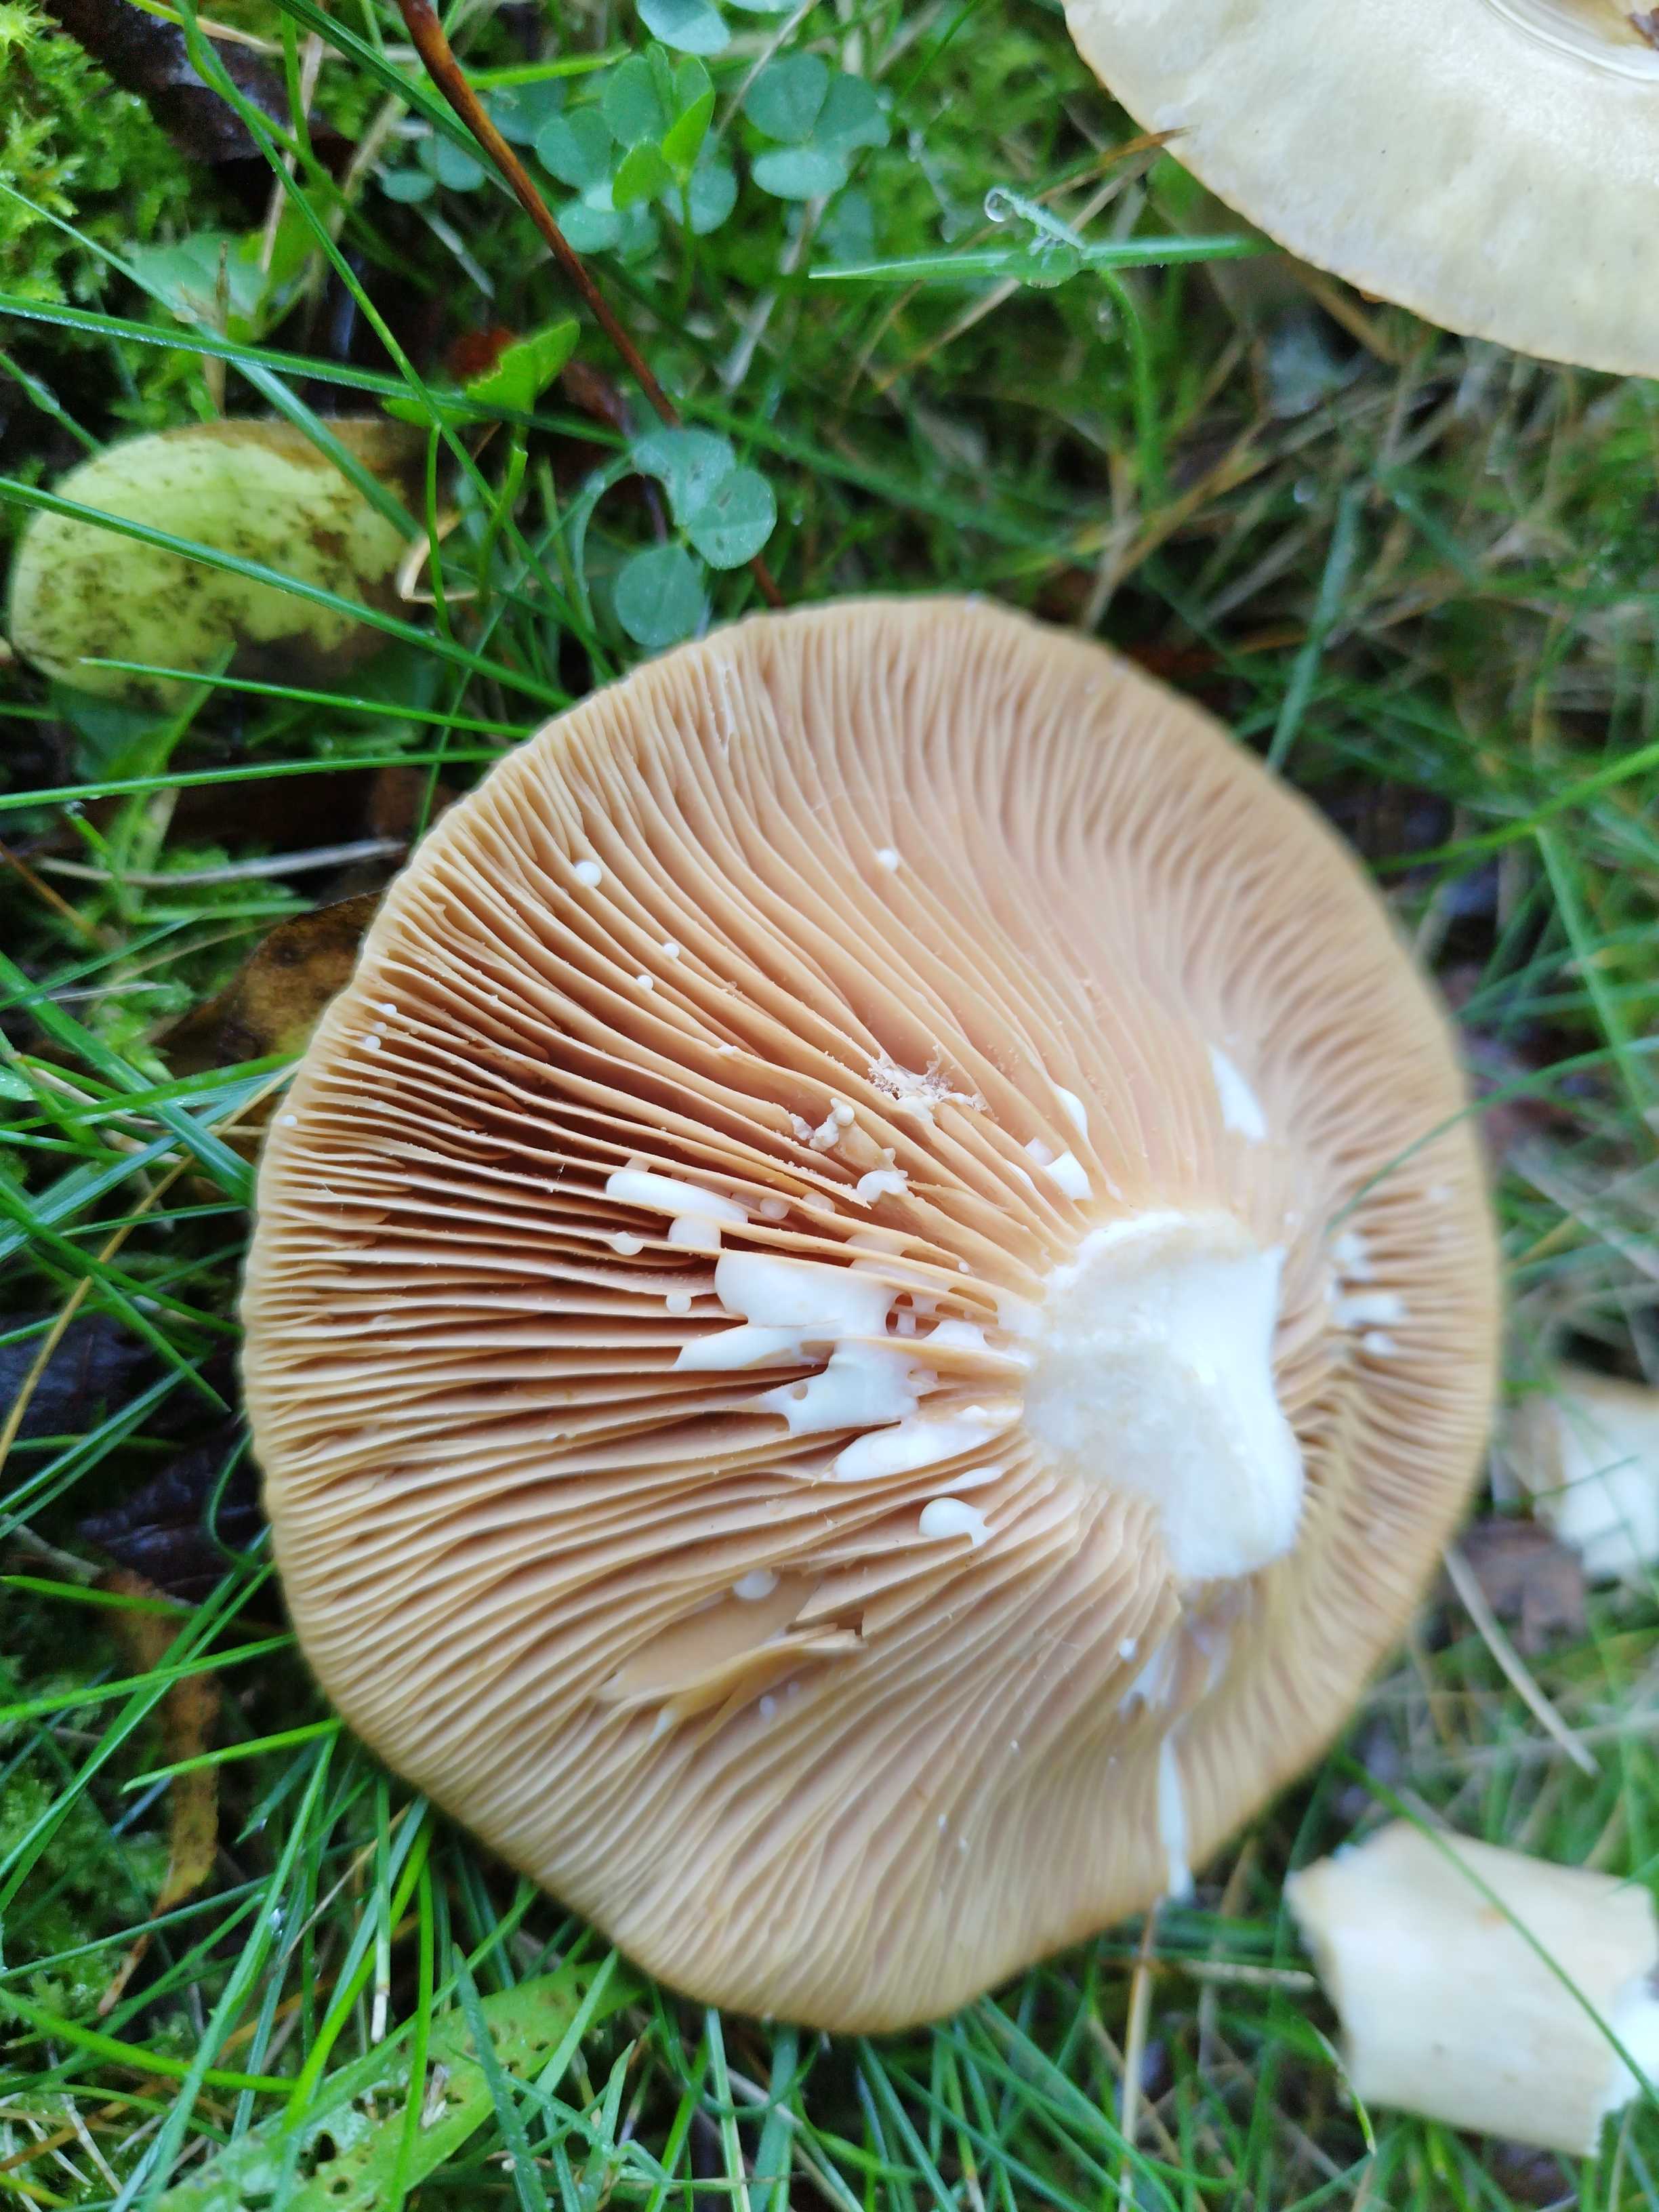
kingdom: Fungi
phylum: Basidiomycota
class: Agaricomycetes
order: Russulales
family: Russulaceae
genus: Lactarius
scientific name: Lactarius pyrogalus
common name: hassel-mælkehat
